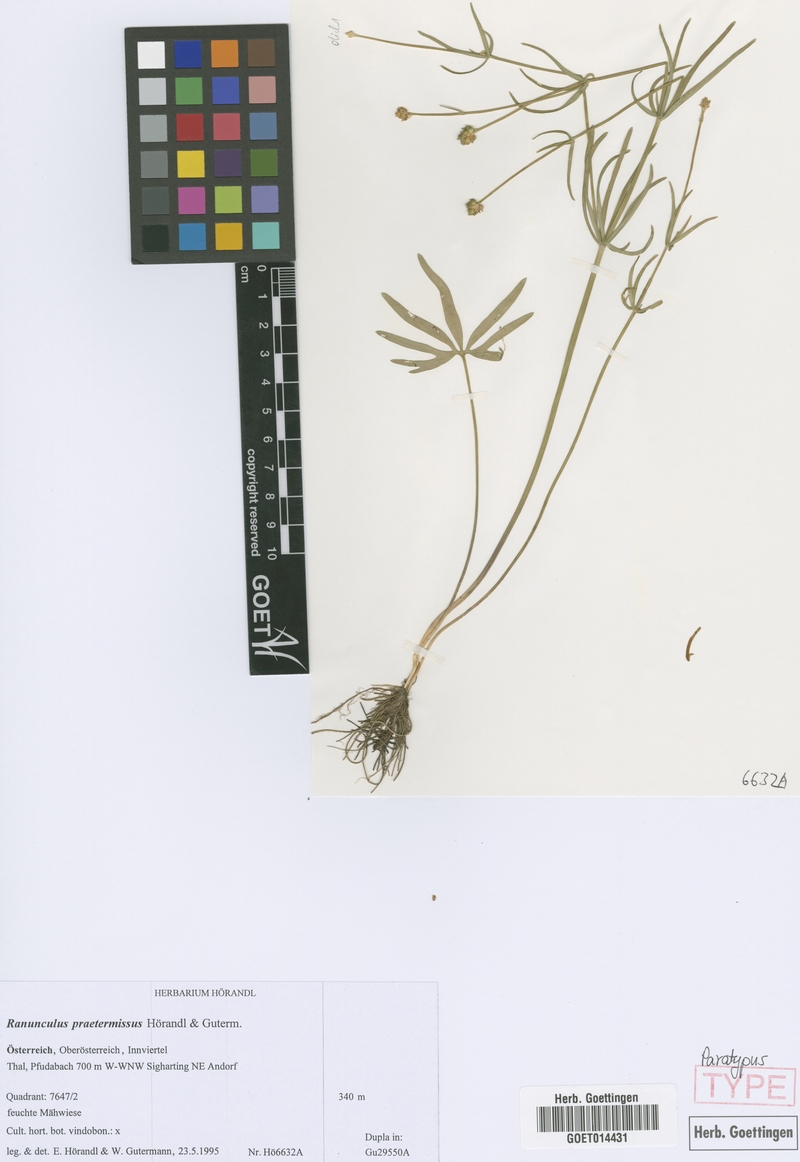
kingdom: Plantae
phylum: Tracheophyta
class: Magnoliopsida
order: Ranunculales
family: Ranunculaceae
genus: Ranunculus
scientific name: Ranunculus praetermissus
